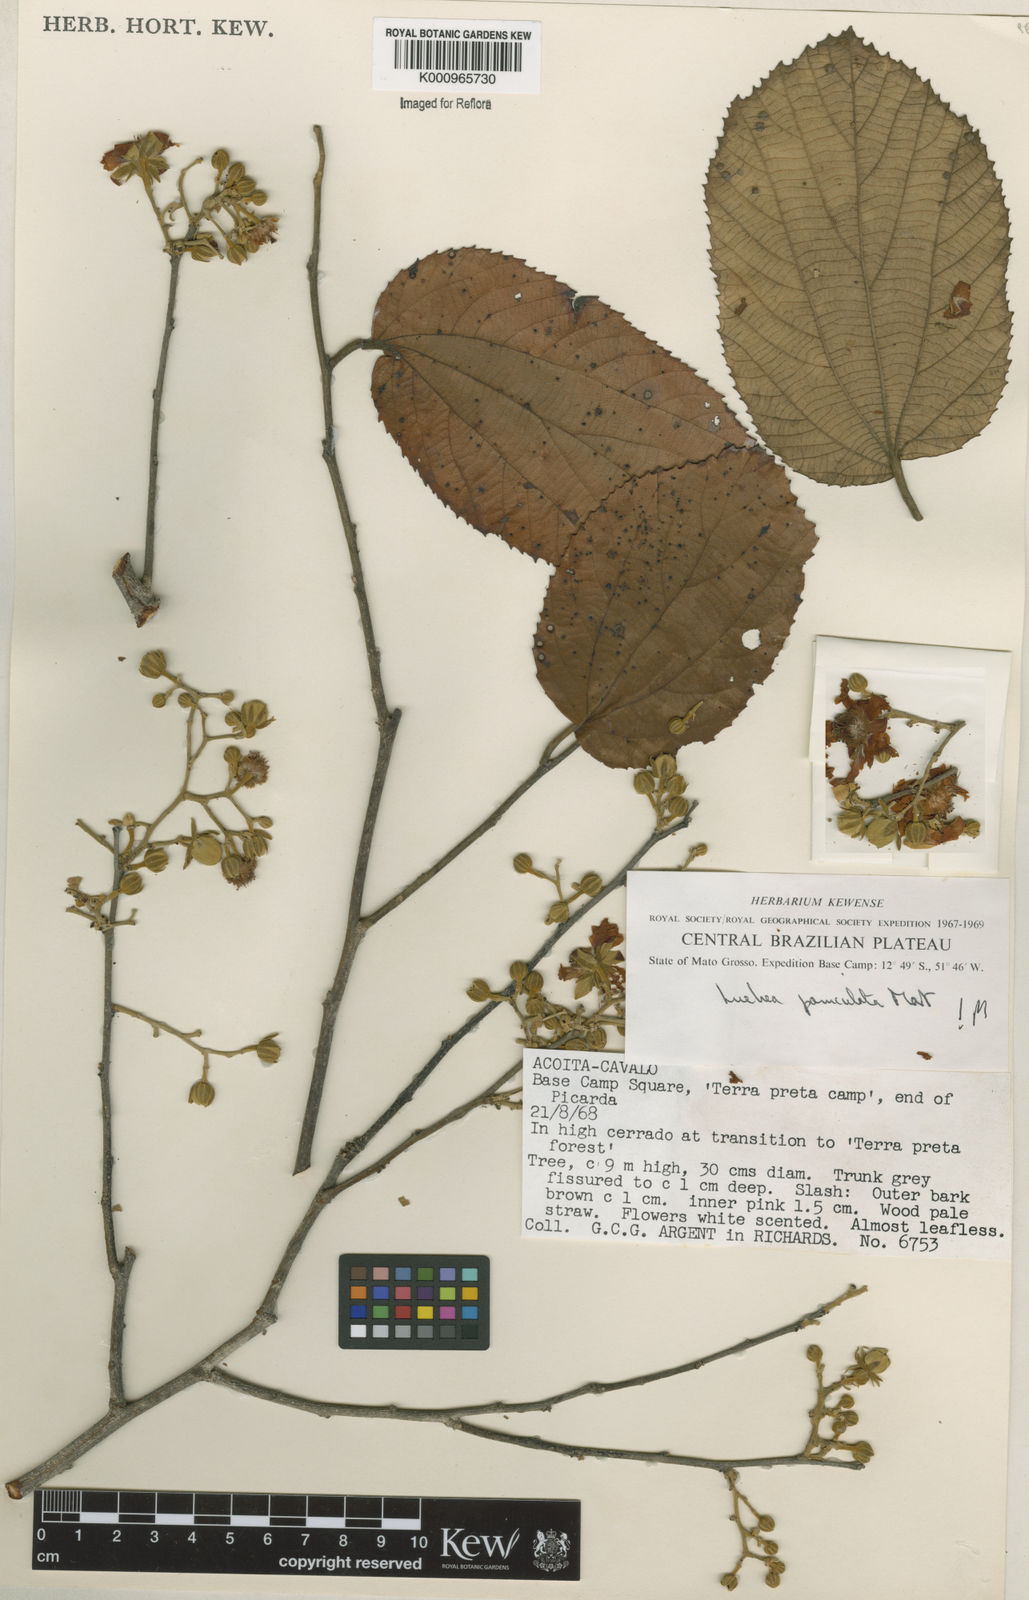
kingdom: Plantae
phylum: Tracheophyta
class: Magnoliopsida
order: Malvales
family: Malvaceae
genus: Luehea
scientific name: Luehea paniculata
